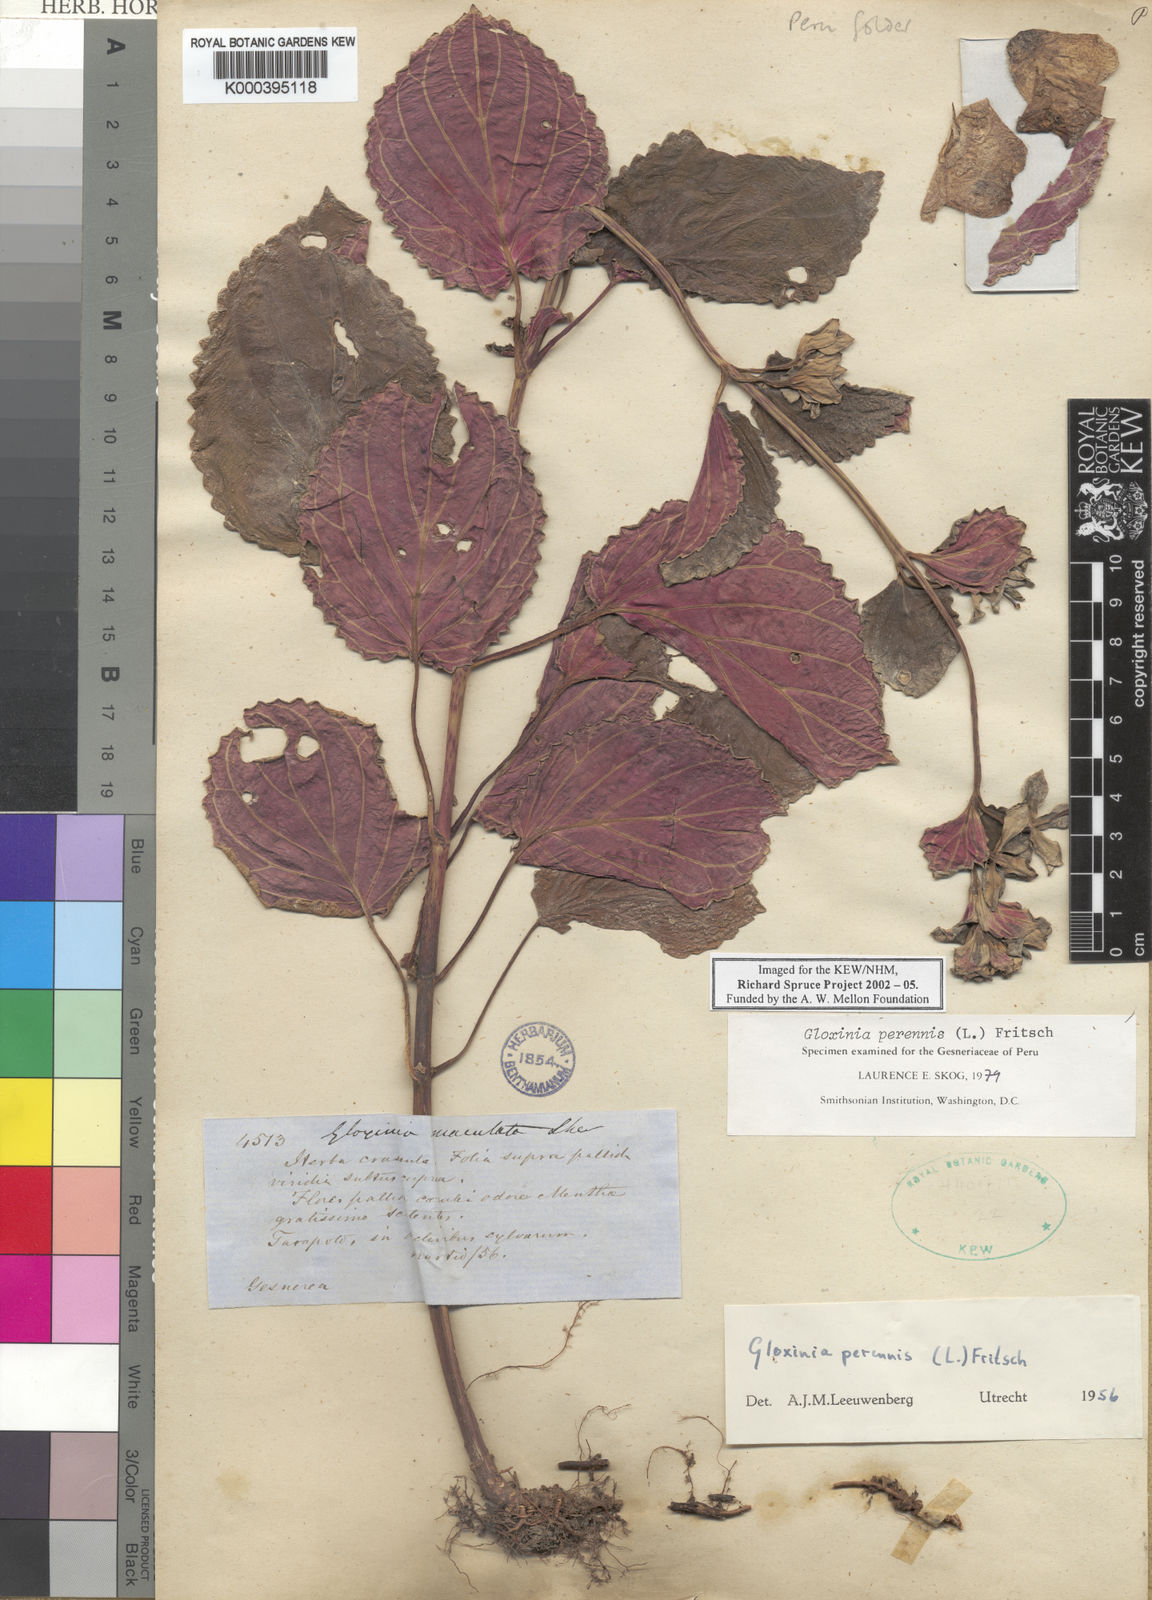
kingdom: Plantae
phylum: Tracheophyta
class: Magnoliopsida
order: Lamiales
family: Gesneriaceae
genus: Gloxinia
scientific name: Gloxinia
